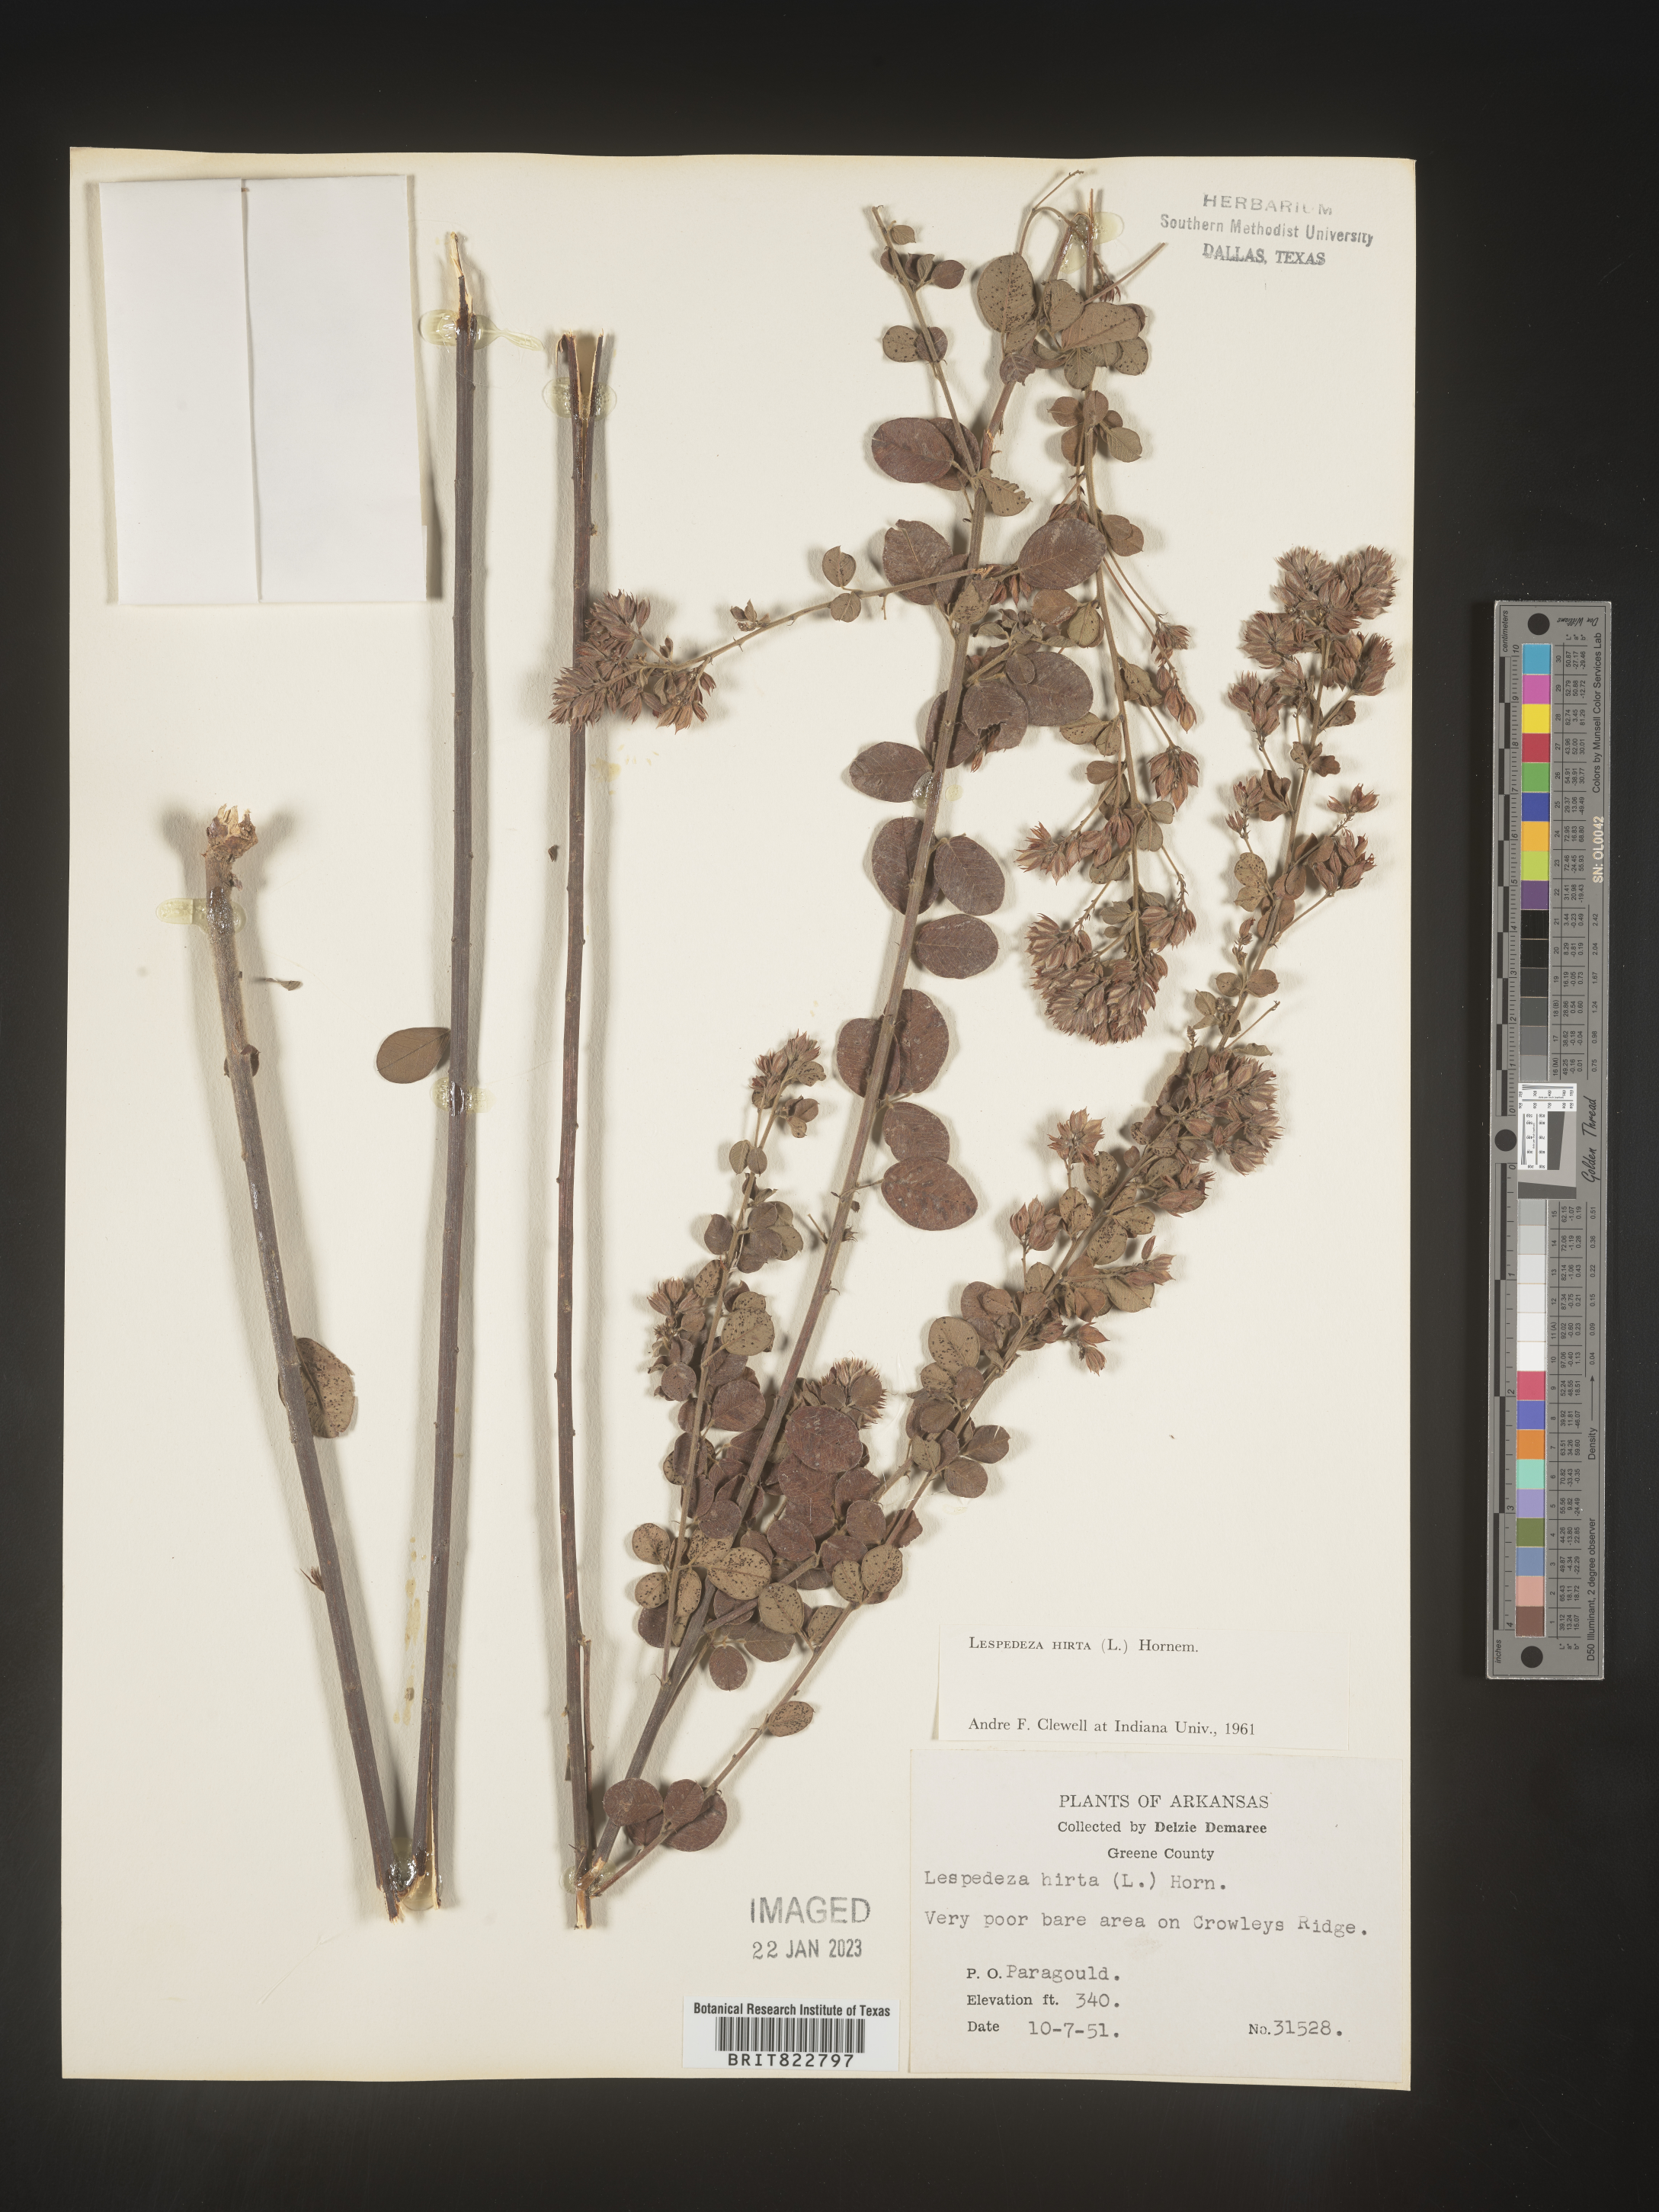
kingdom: Plantae
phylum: Tracheophyta
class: Magnoliopsida
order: Fabales
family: Fabaceae
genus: Lespedeza
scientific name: Lespedeza hirta
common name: Hairy lespedeza
